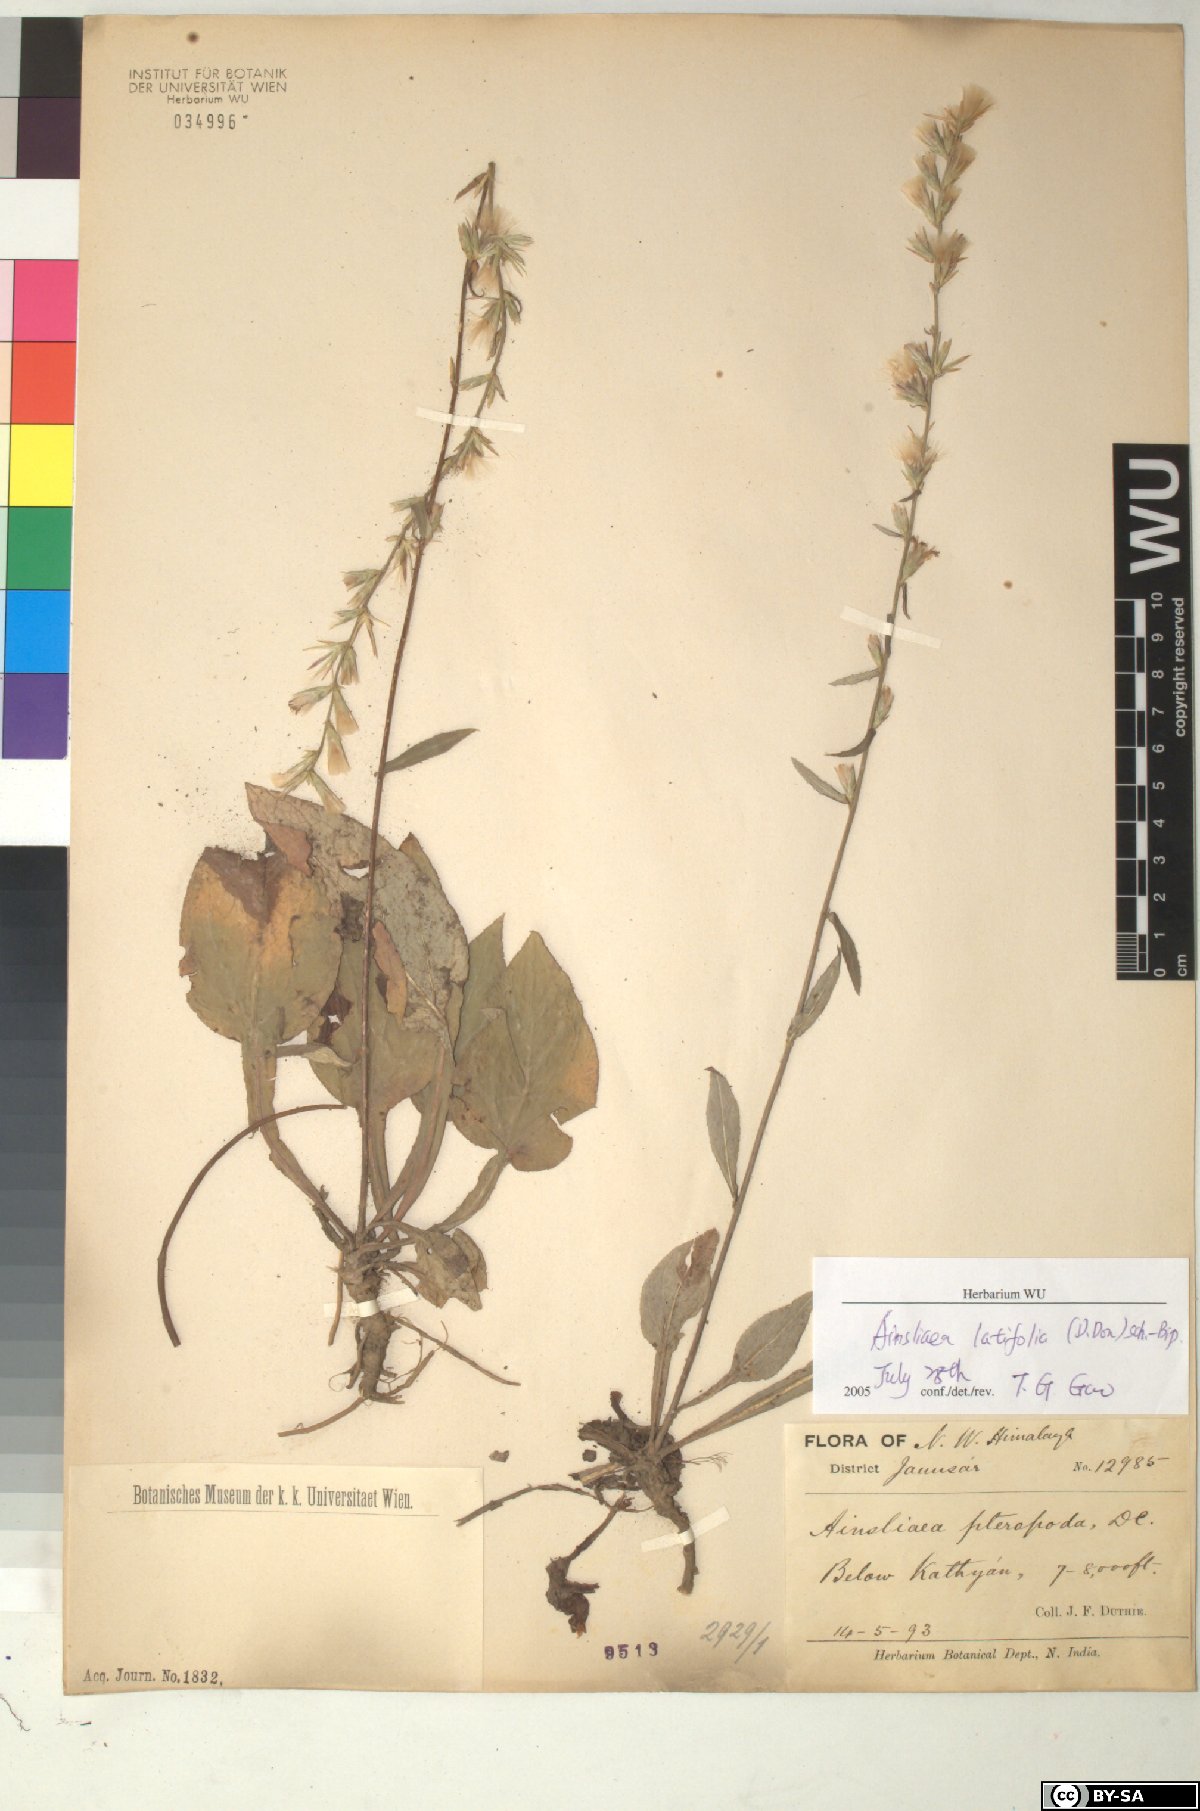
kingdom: Plantae
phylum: Tracheophyta
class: Magnoliopsida
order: Asterales
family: Asteraceae
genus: Ainsliaea
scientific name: Ainsliaea latifolia
